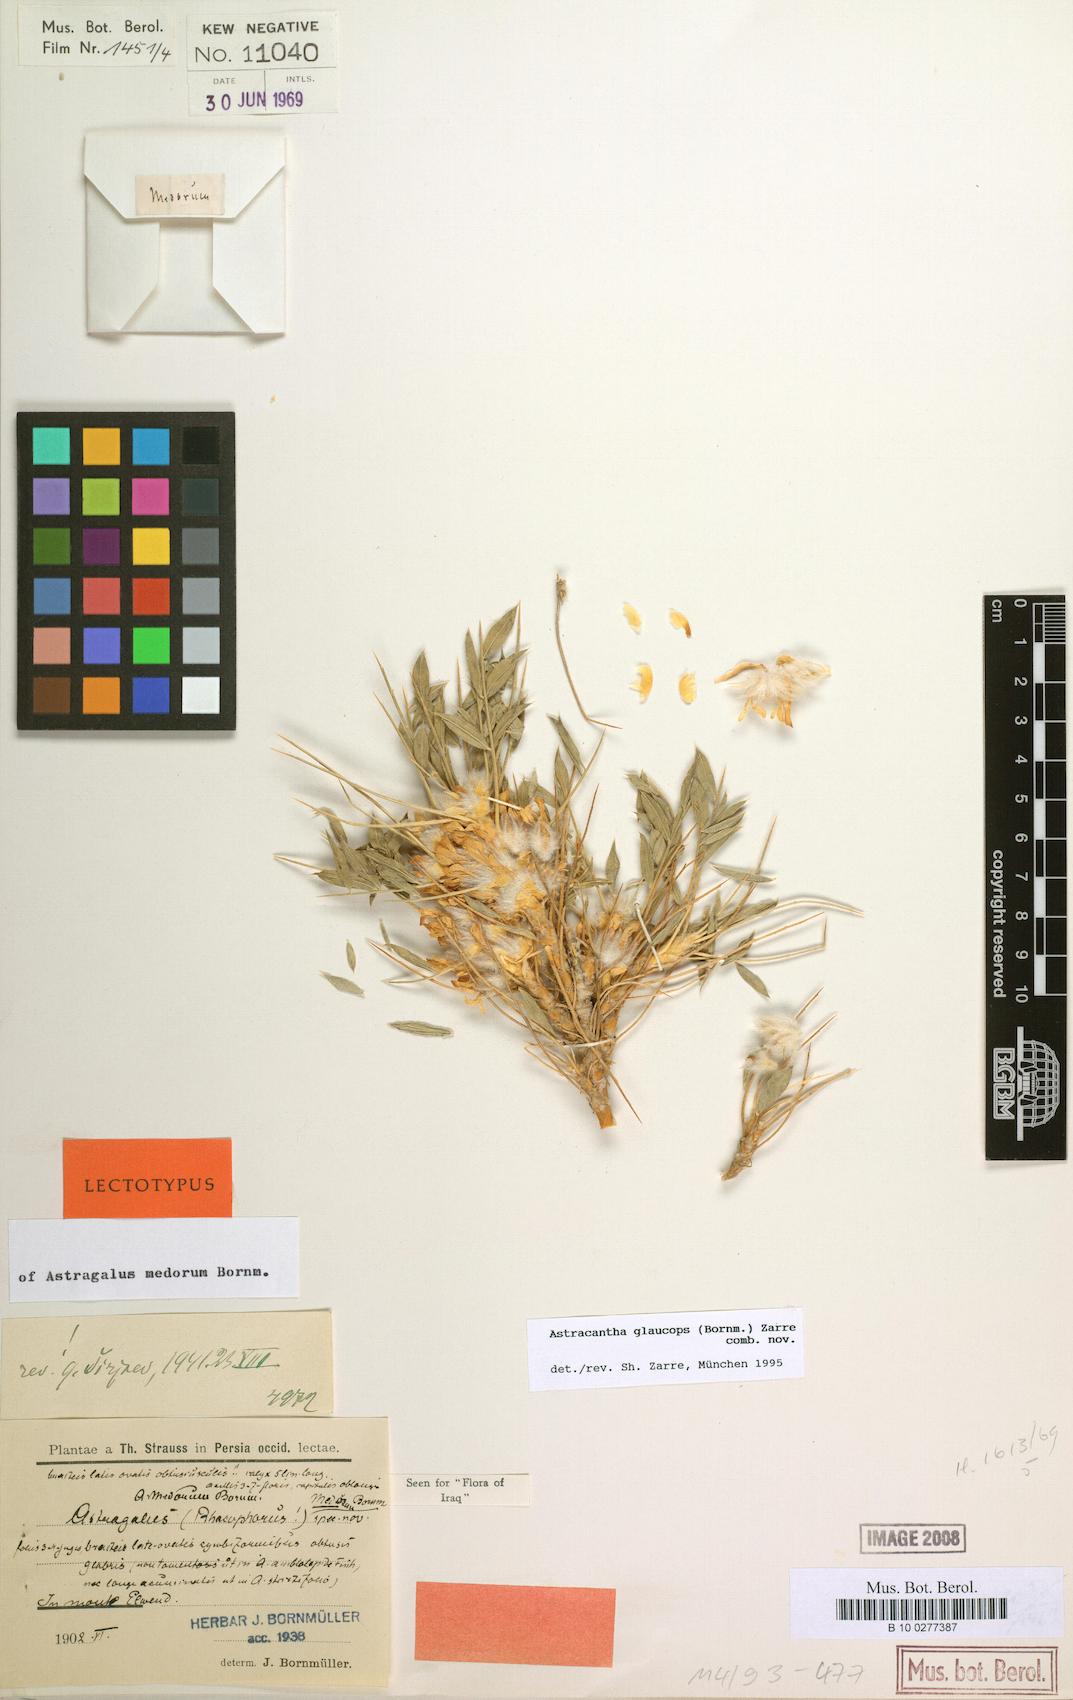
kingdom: Chromista
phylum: Cercozoa
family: Astracanthidae
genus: Astracantha
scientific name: Astracantha
